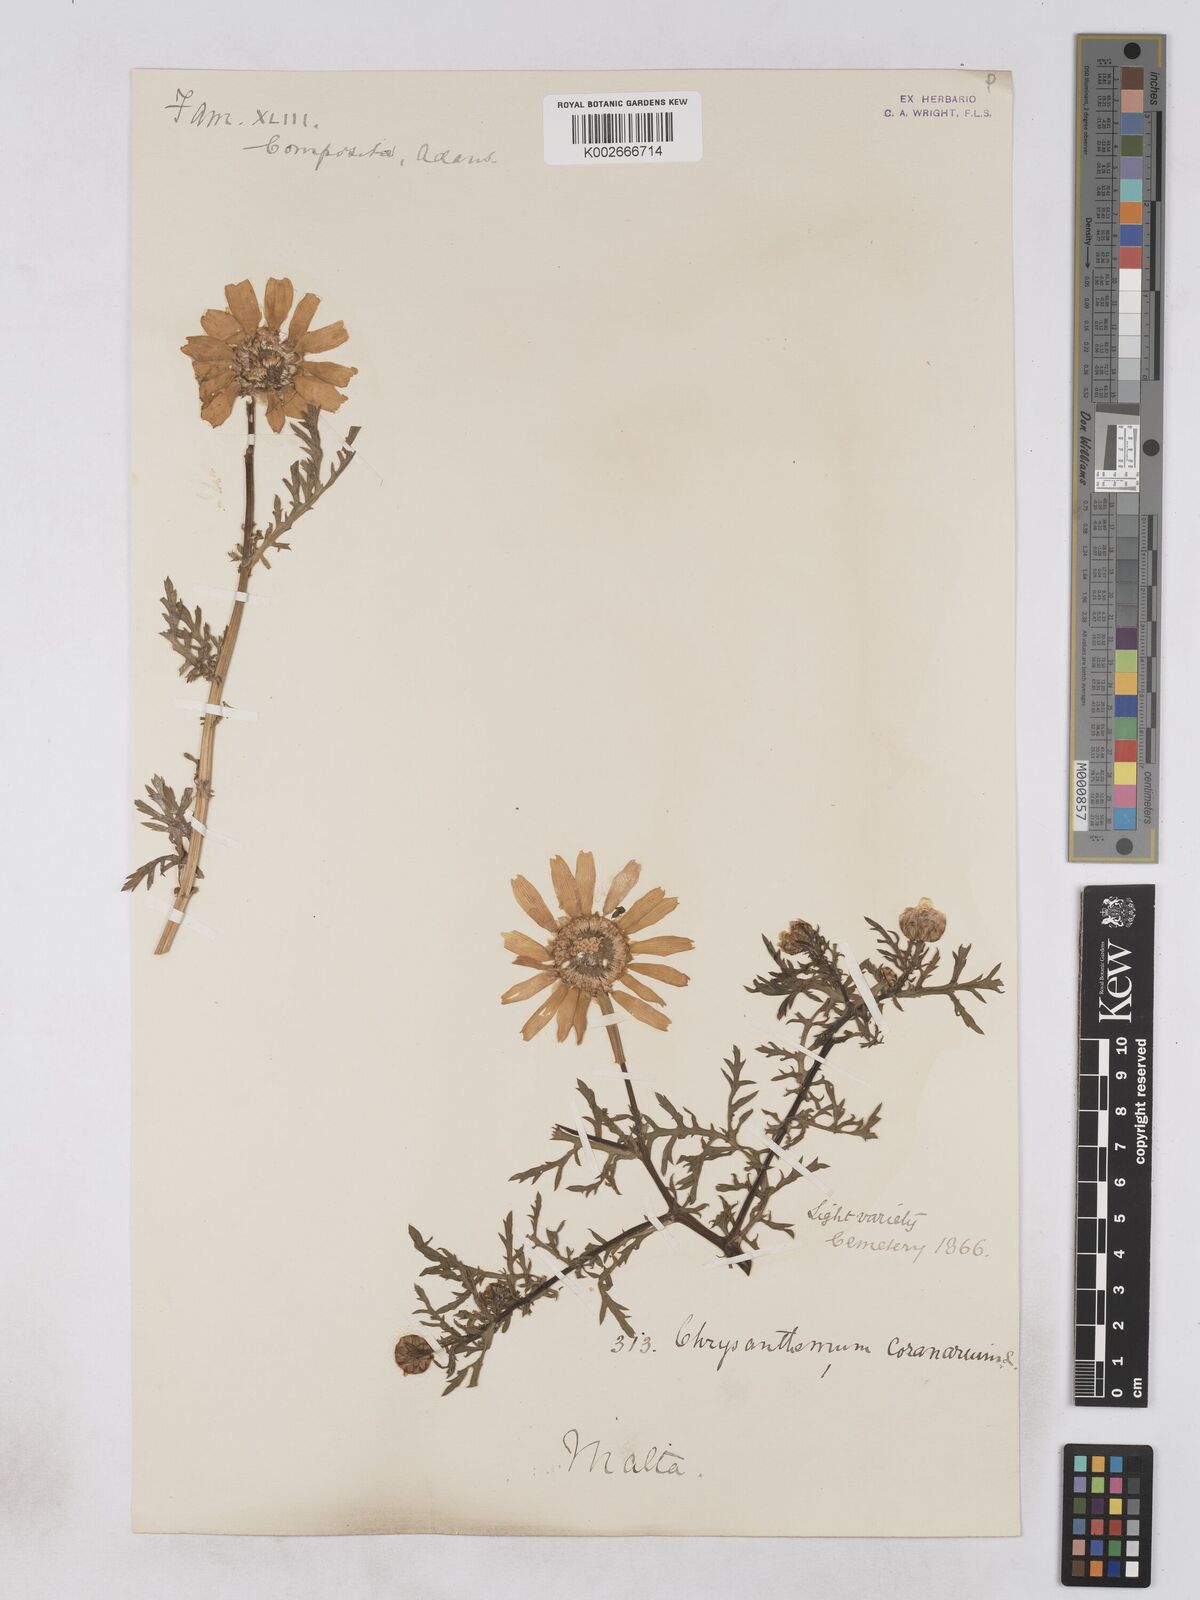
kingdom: Plantae
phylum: Tracheophyta
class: Magnoliopsida
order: Asterales
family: Asteraceae
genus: Glebionis
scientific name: Glebionis coronaria
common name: Crowndaisy
